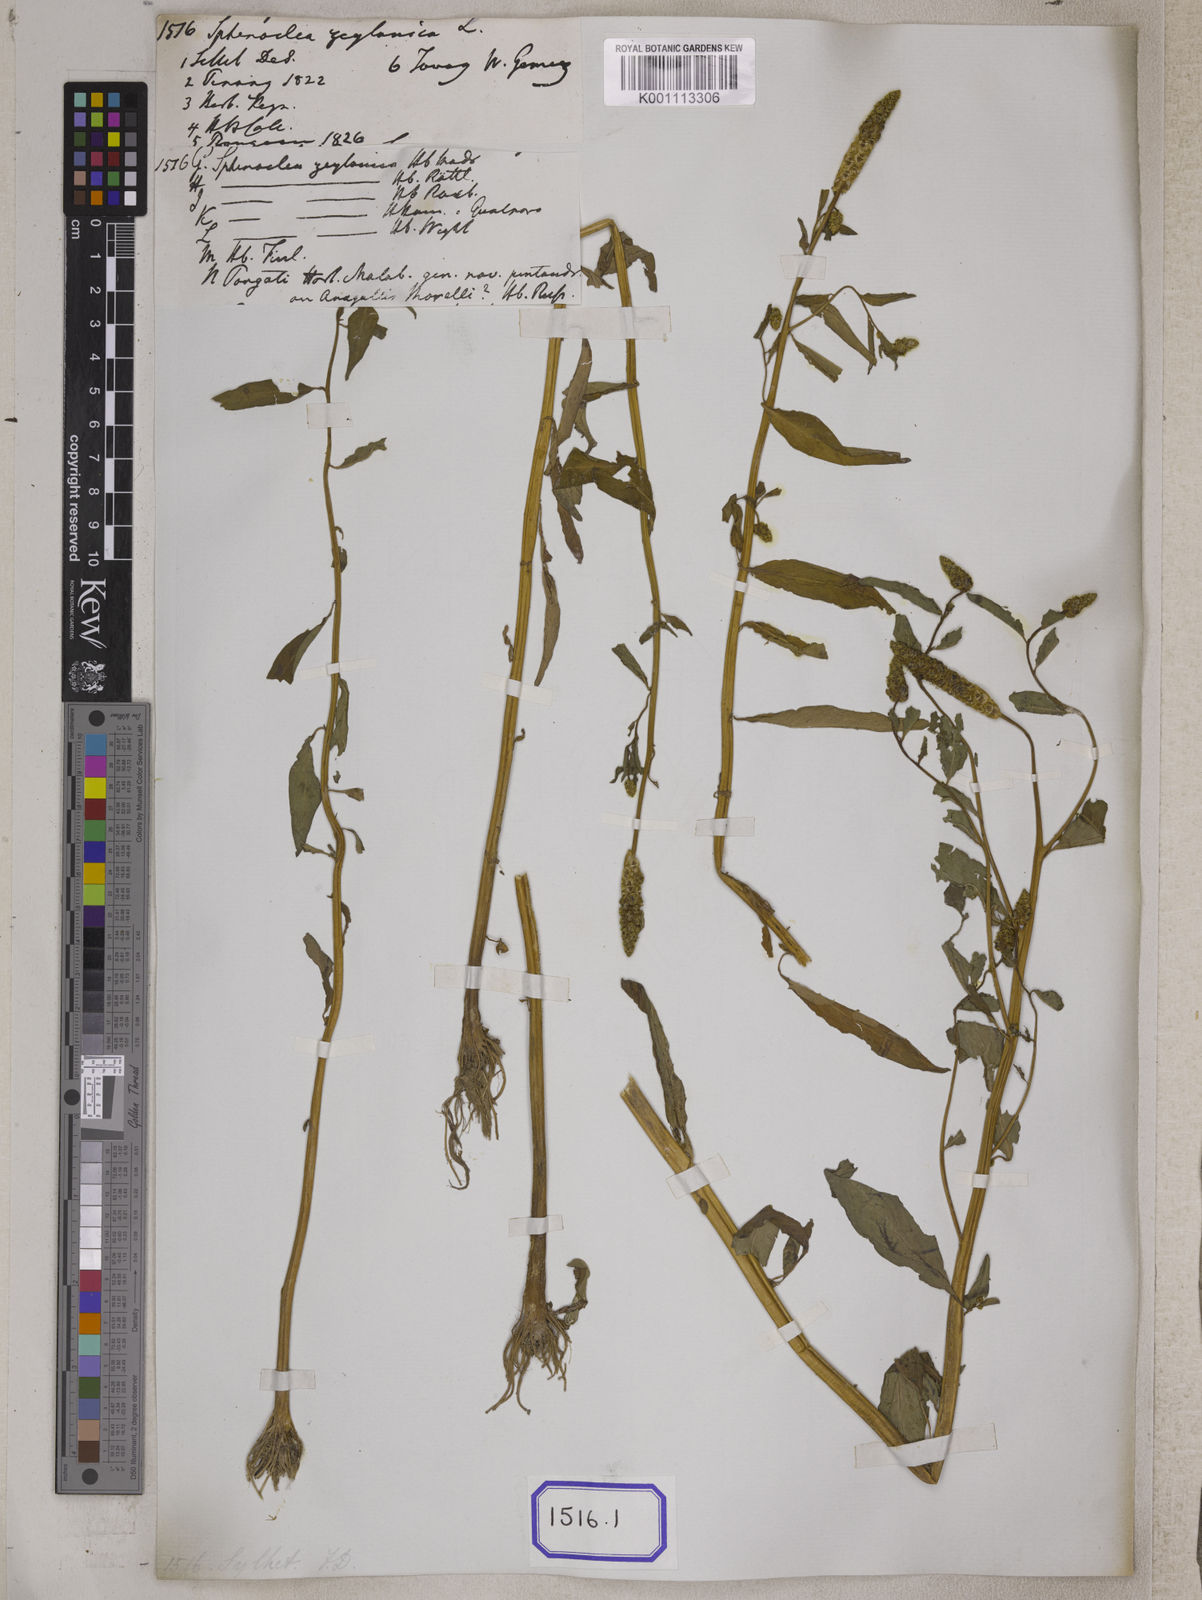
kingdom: Plantae
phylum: Tracheophyta
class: Magnoliopsida
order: Solanales
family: Sphenocleaceae
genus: Sphenoclea
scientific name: Sphenoclea
